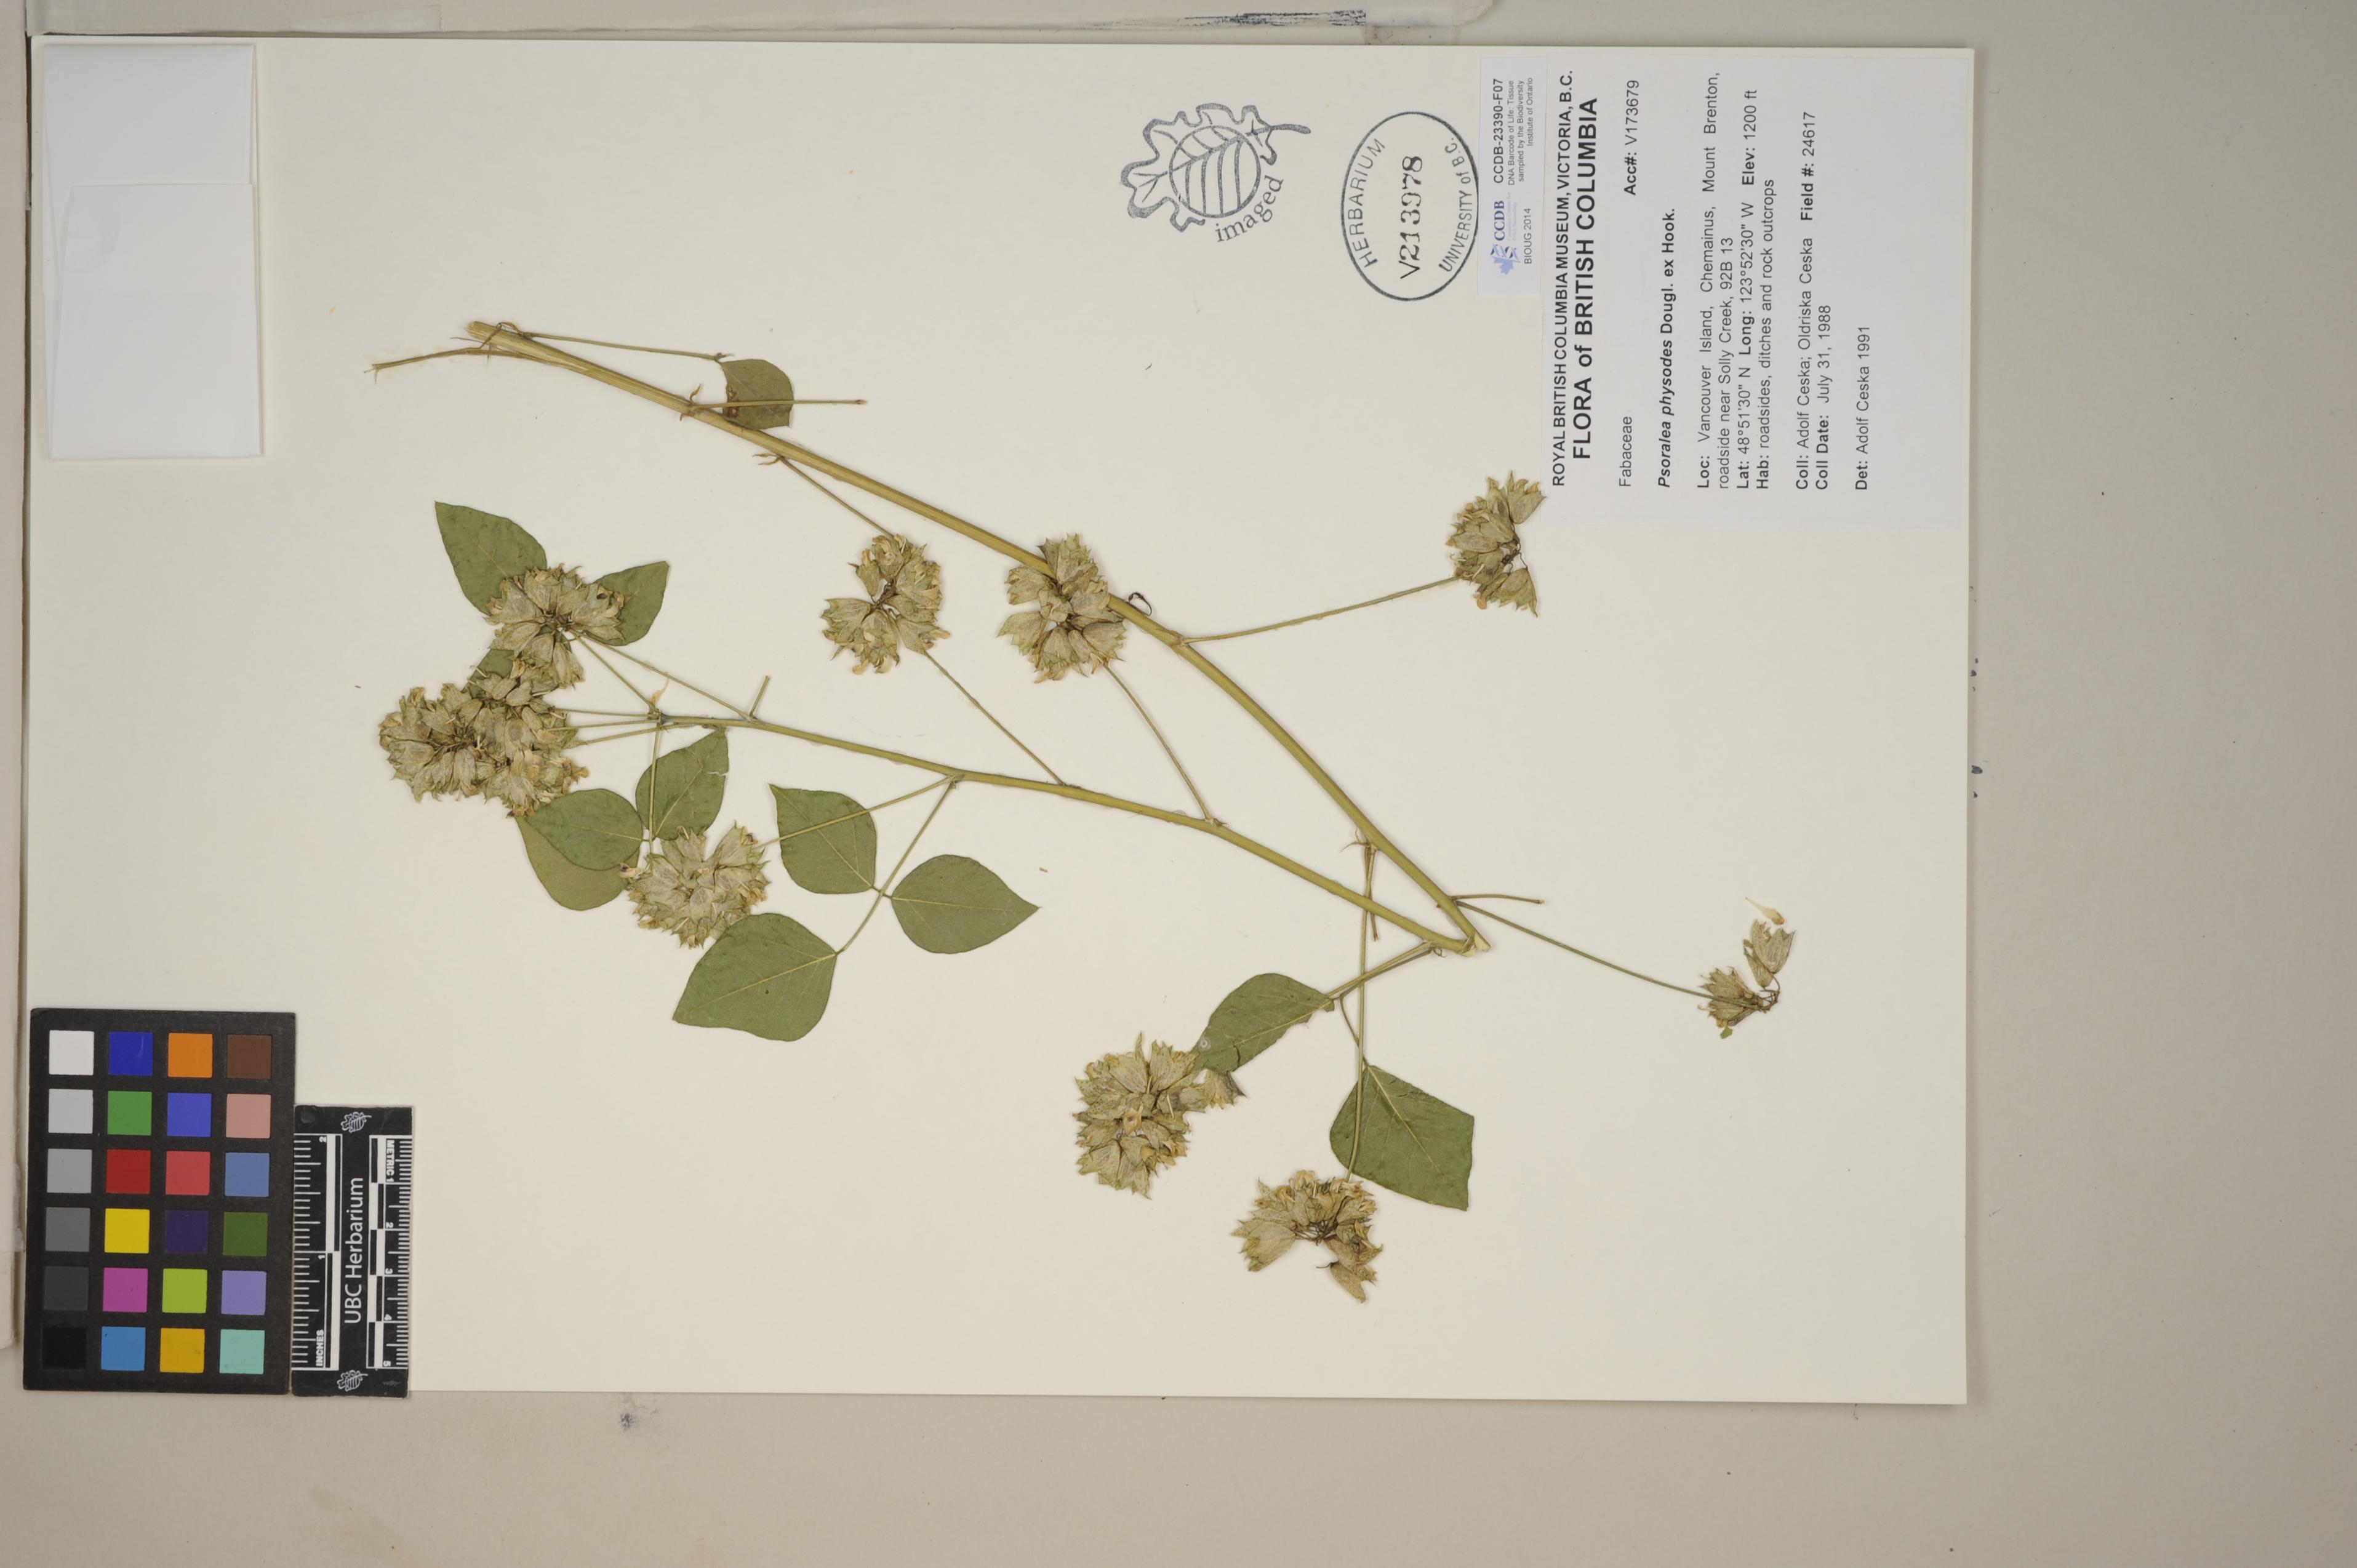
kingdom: Plantae
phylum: Tracheophyta
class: Magnoliopsida
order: Fabales
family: Fabaceae
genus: Rupertia
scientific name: Rupertia physodes
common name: California-tea
